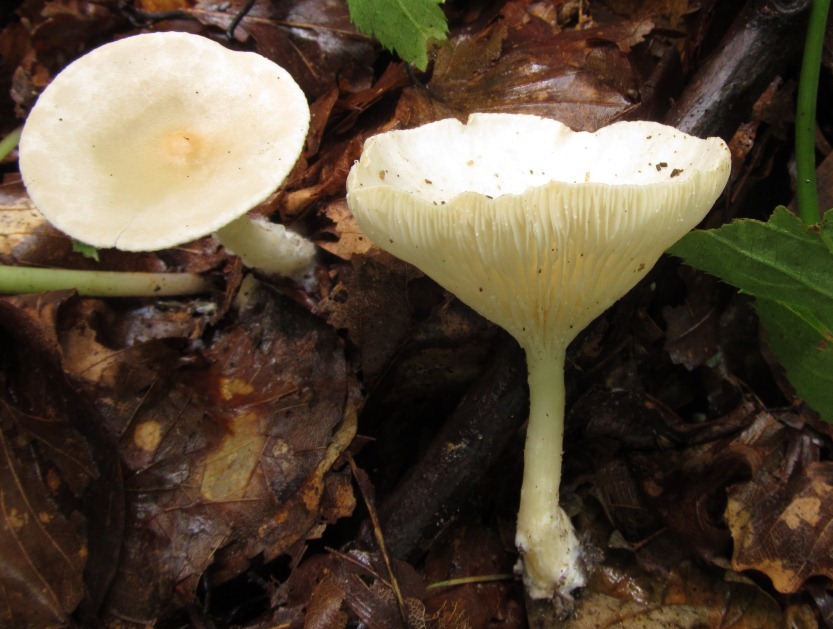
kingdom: Fungi
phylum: Basidiomycota
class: Agaricomycetes
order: Agaricales
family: Tricholomataceae
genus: Infundibulicybe
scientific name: Infundibulicybe gibba
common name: almindelig tragthat
